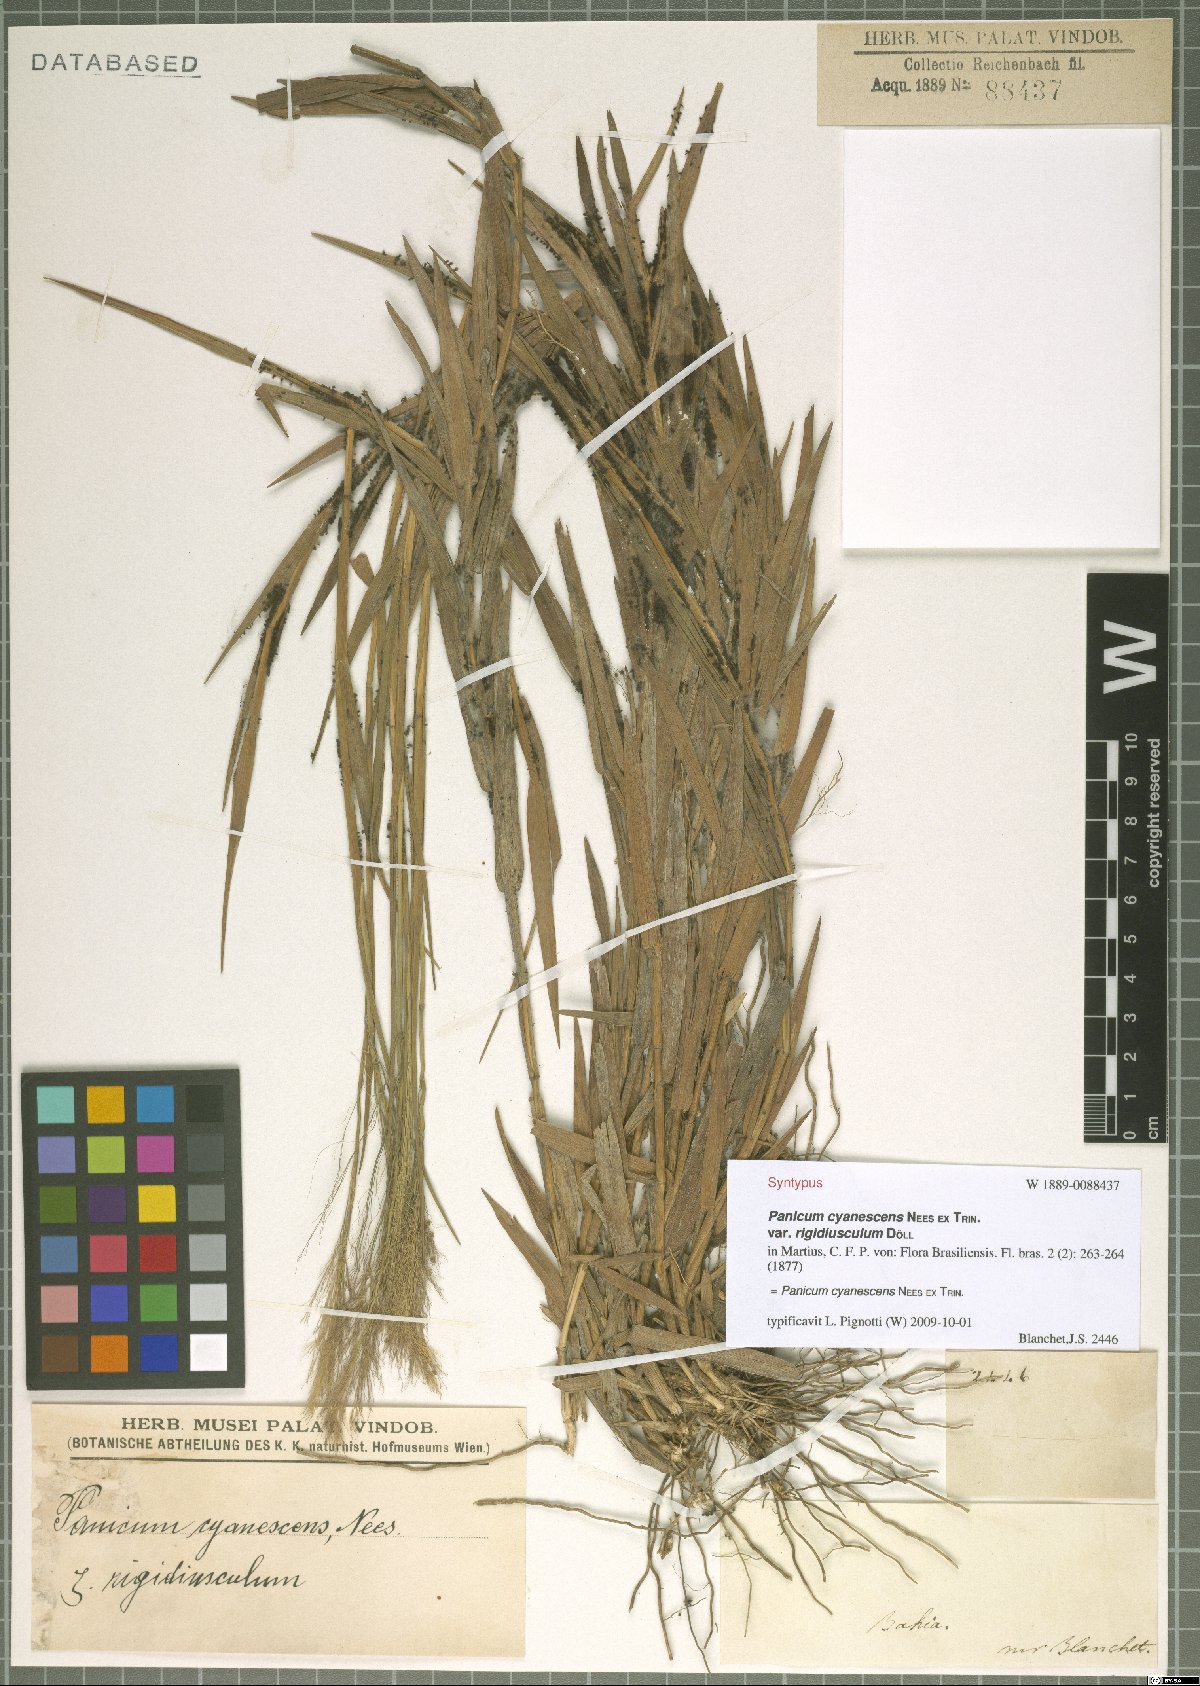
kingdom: Plantae
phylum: Tracheophyta
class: Liliopsida
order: Poales
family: Poaceae
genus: Trichanthecium
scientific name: Trichanthecium cyanescens
